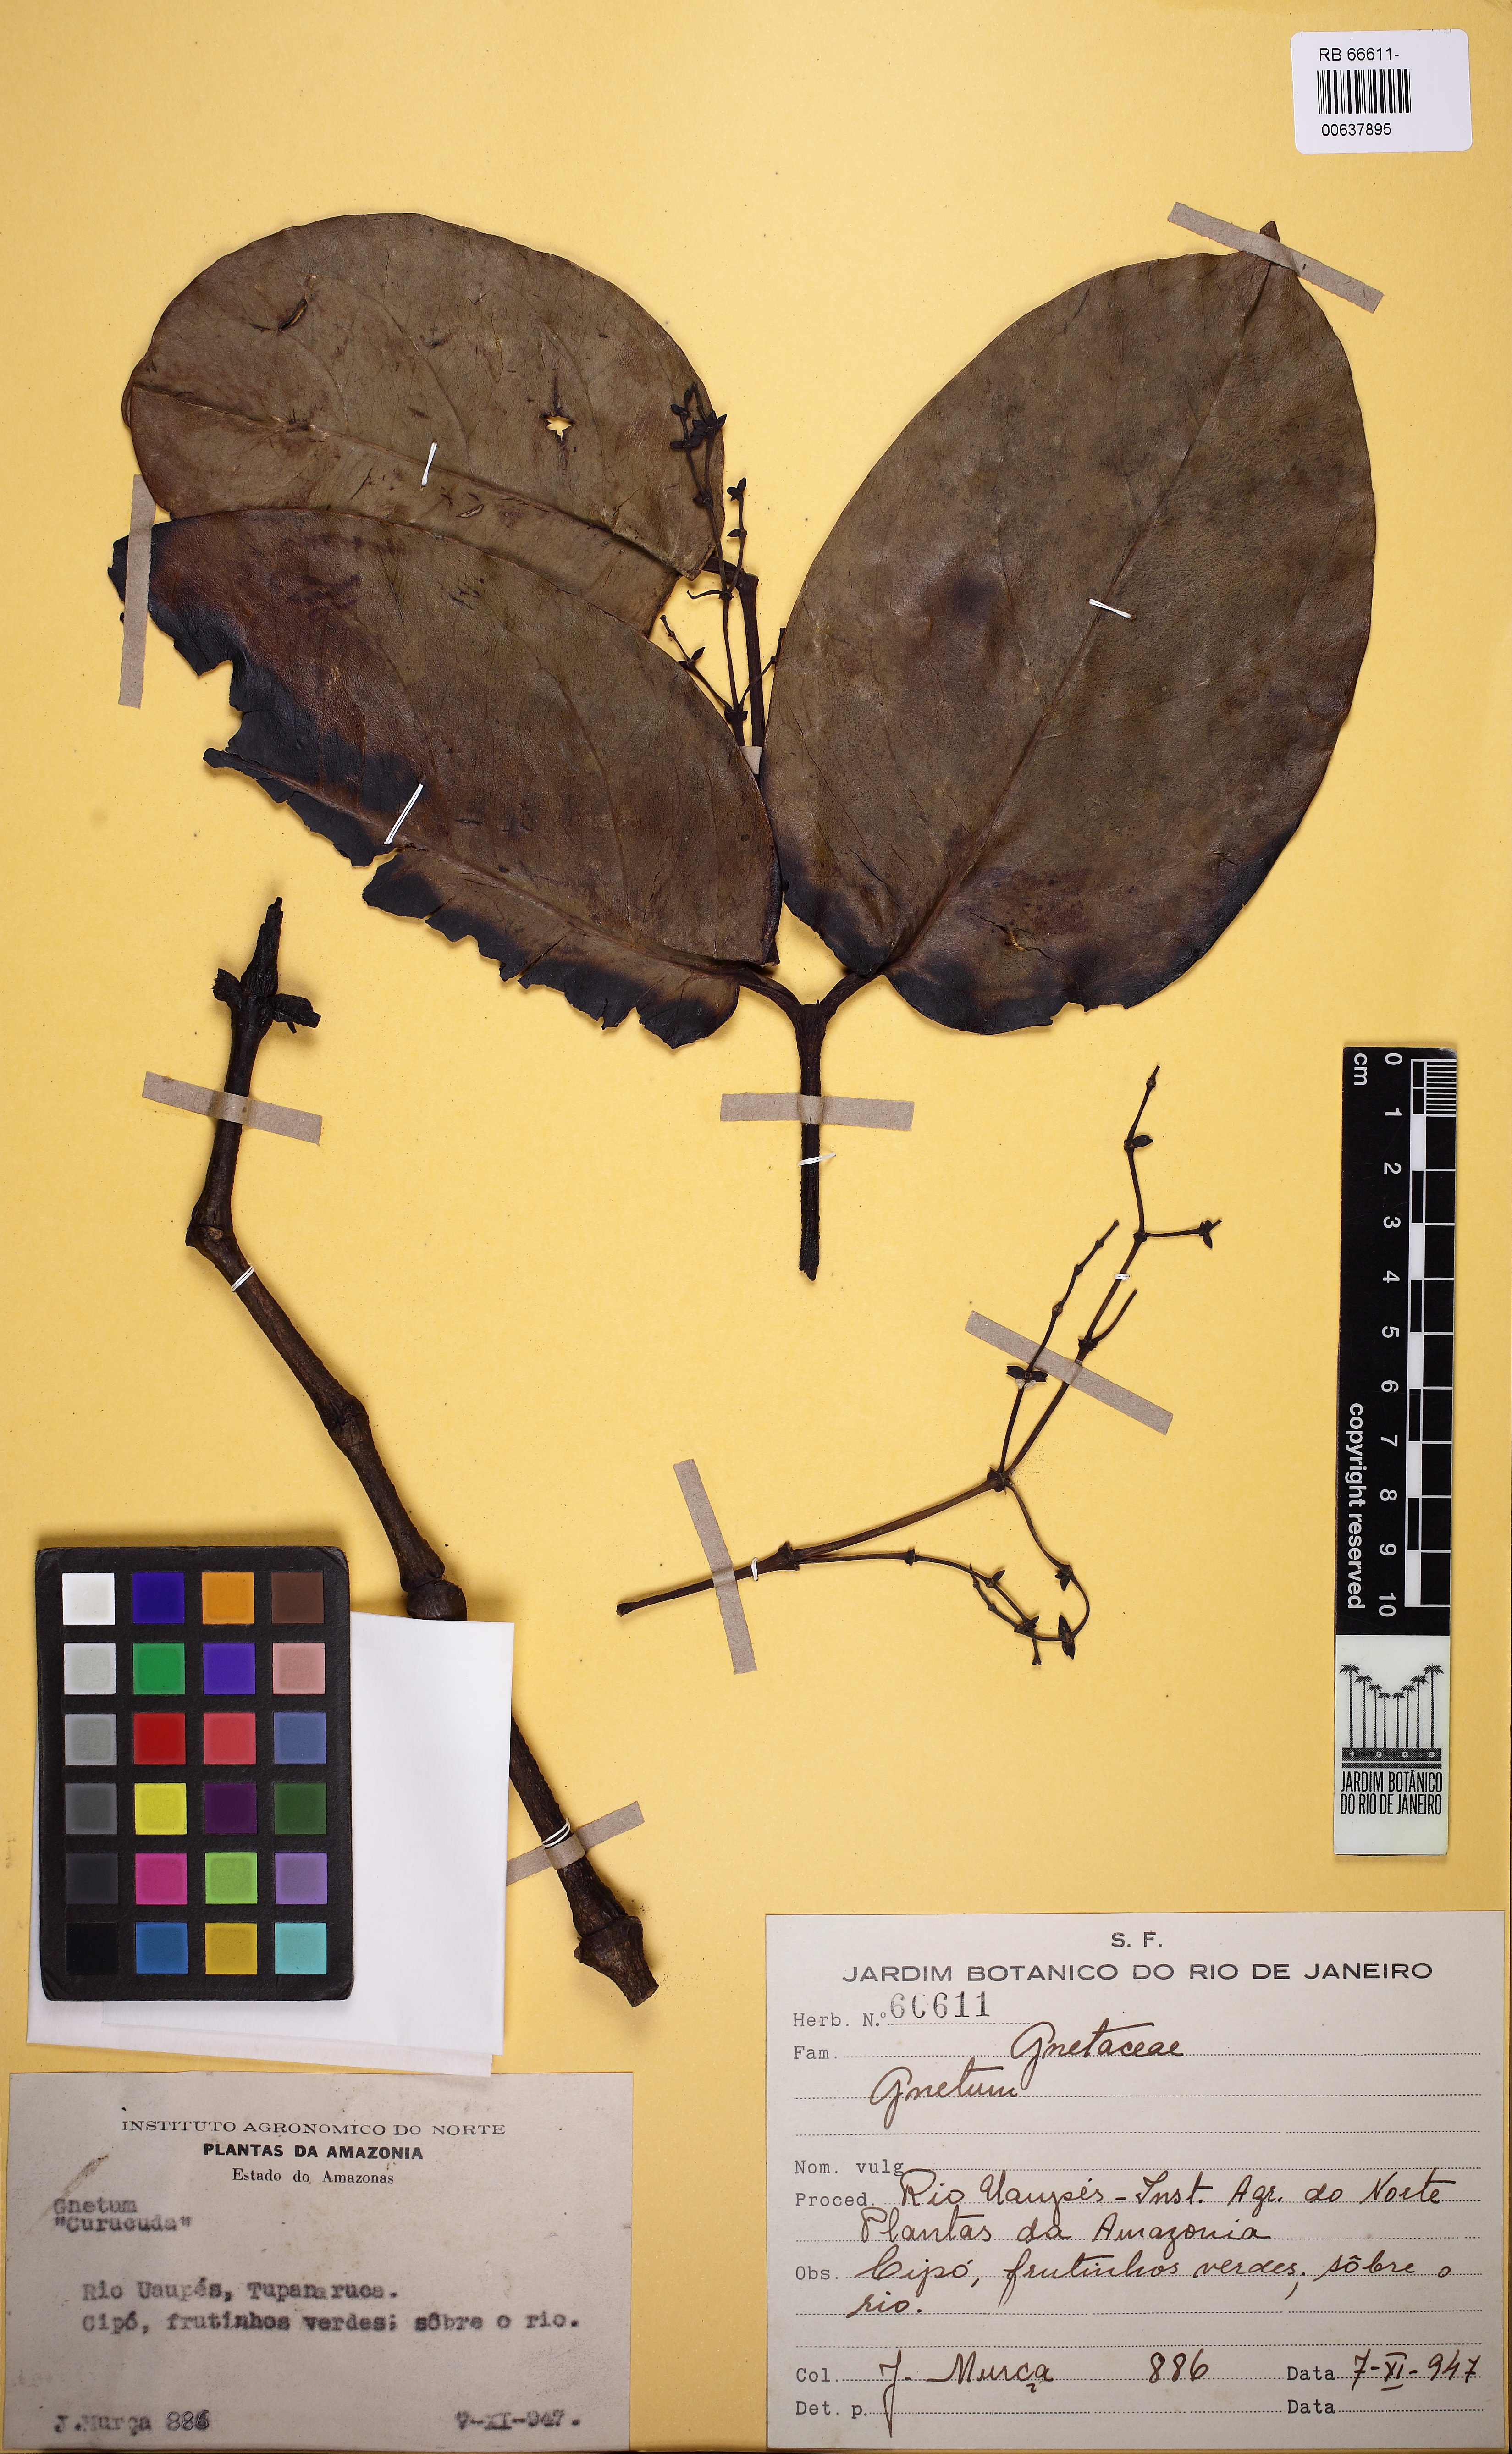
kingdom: Plantae
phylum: Tracheophyta
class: Gnetopsida
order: Gnetales
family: Gnetaceae
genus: Gnetum
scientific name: Gnetum
